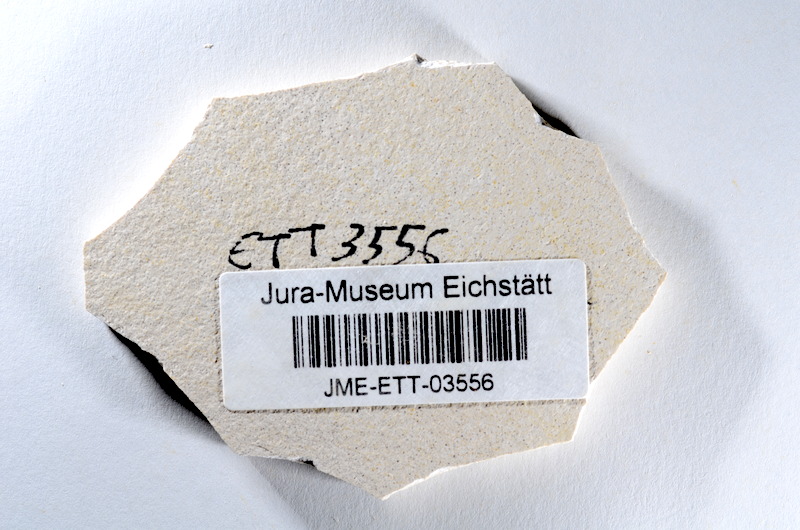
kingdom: Animalia
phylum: Chordata
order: Salmoniformes
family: Orthogonikleithridae
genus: Orthogonikleithrus
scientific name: Orthogonikleithrus hoelli
